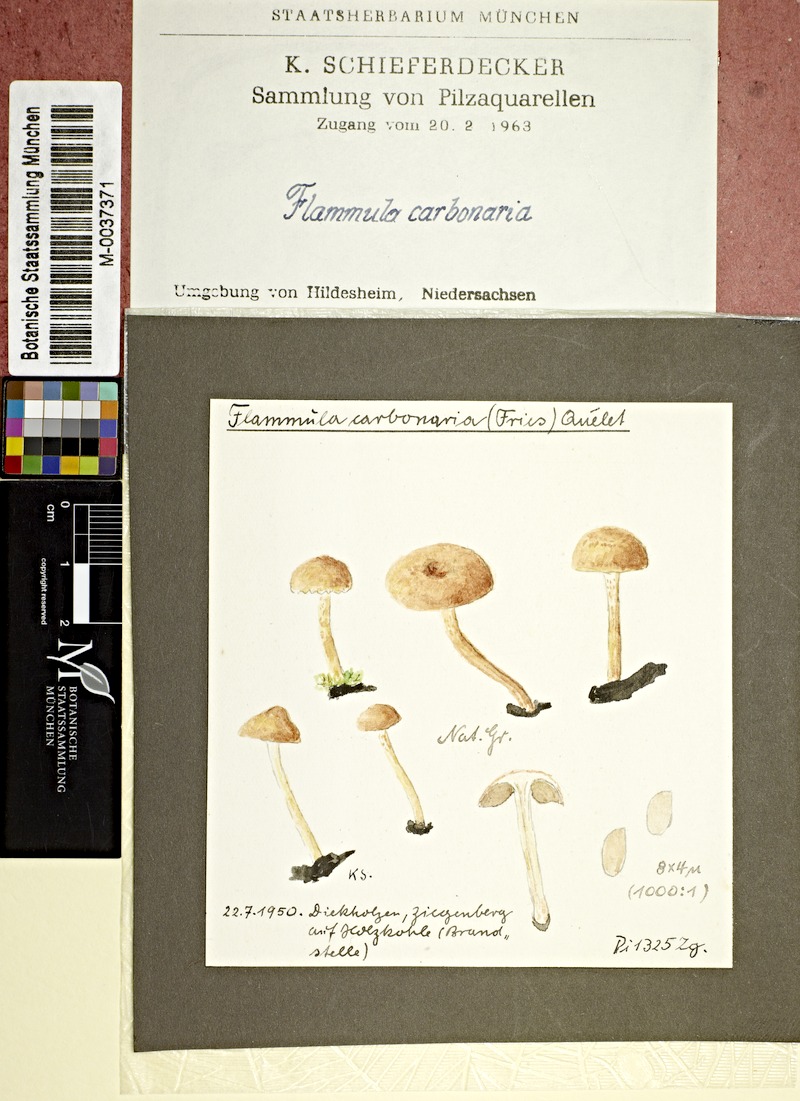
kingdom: Fungi
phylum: Basidiomycota
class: Agaricomycetes
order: Agaricales
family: Strophariaceae
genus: Pholiota
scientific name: Pholiota carbonaria
